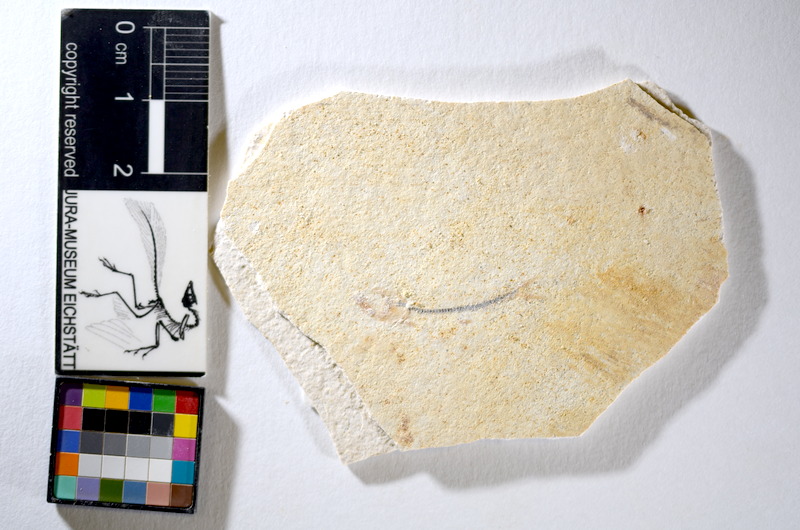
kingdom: Animalia
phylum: Chordata
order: Salmoniformes
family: Orthogonikleithridae
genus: Orthogonikleithrus
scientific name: Orthogonikleithrus hoelli
